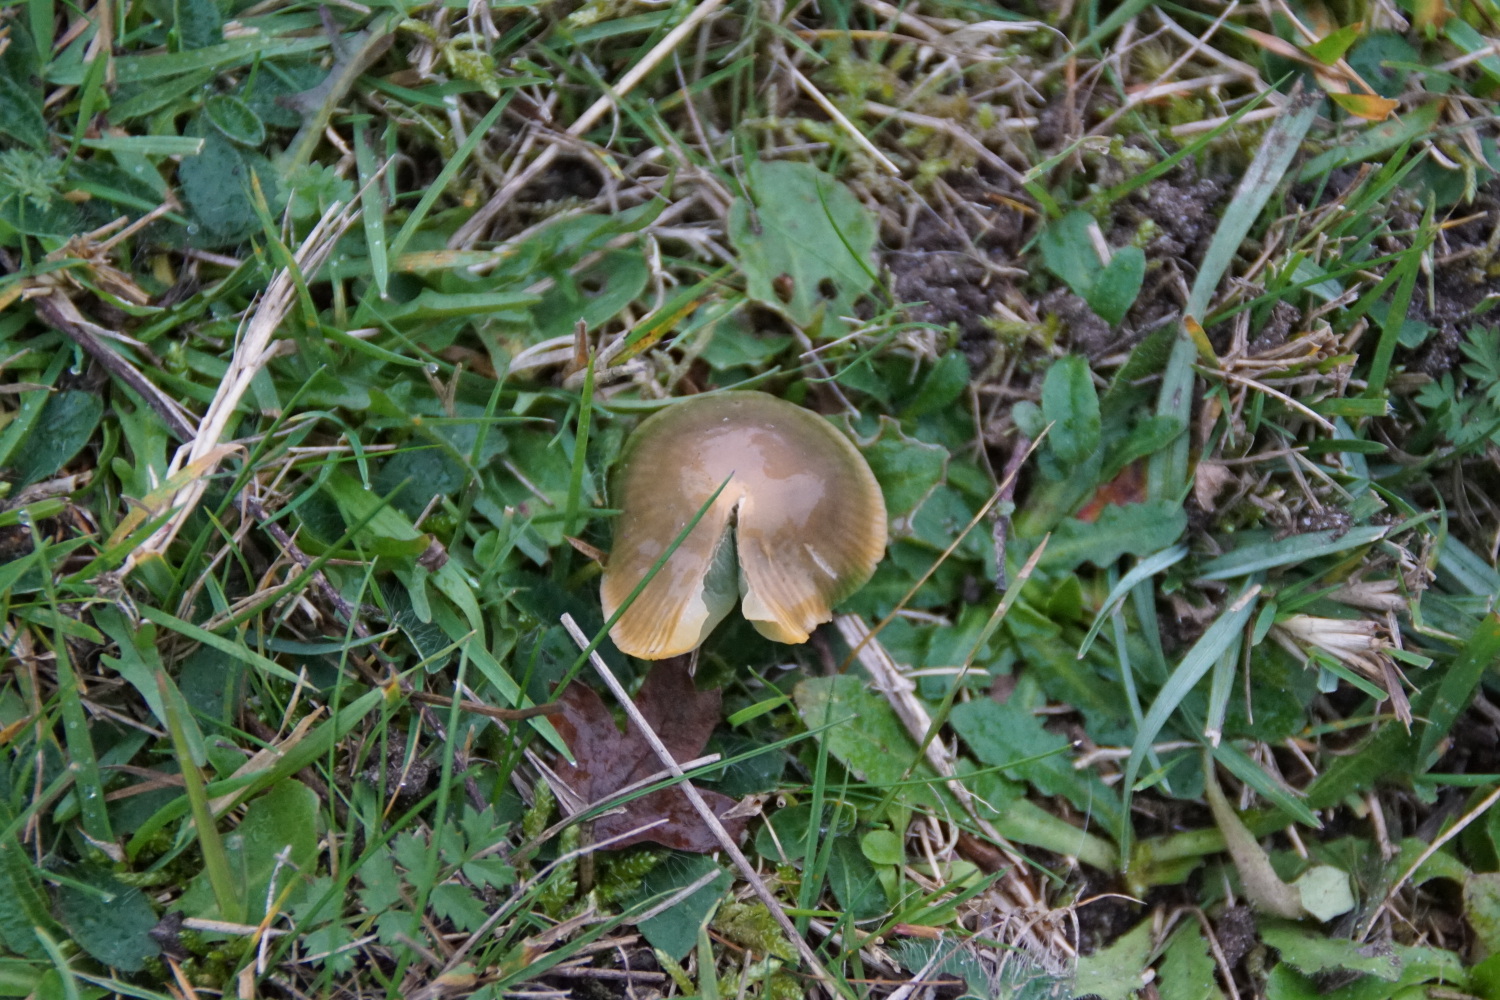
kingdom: Fungi
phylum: Basidiomycota
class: Agaricomycetes
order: Agaricales
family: Hygrophoraceae
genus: Gliophorus
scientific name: Gliophorus psittacinus
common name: papegøje-vokshat
